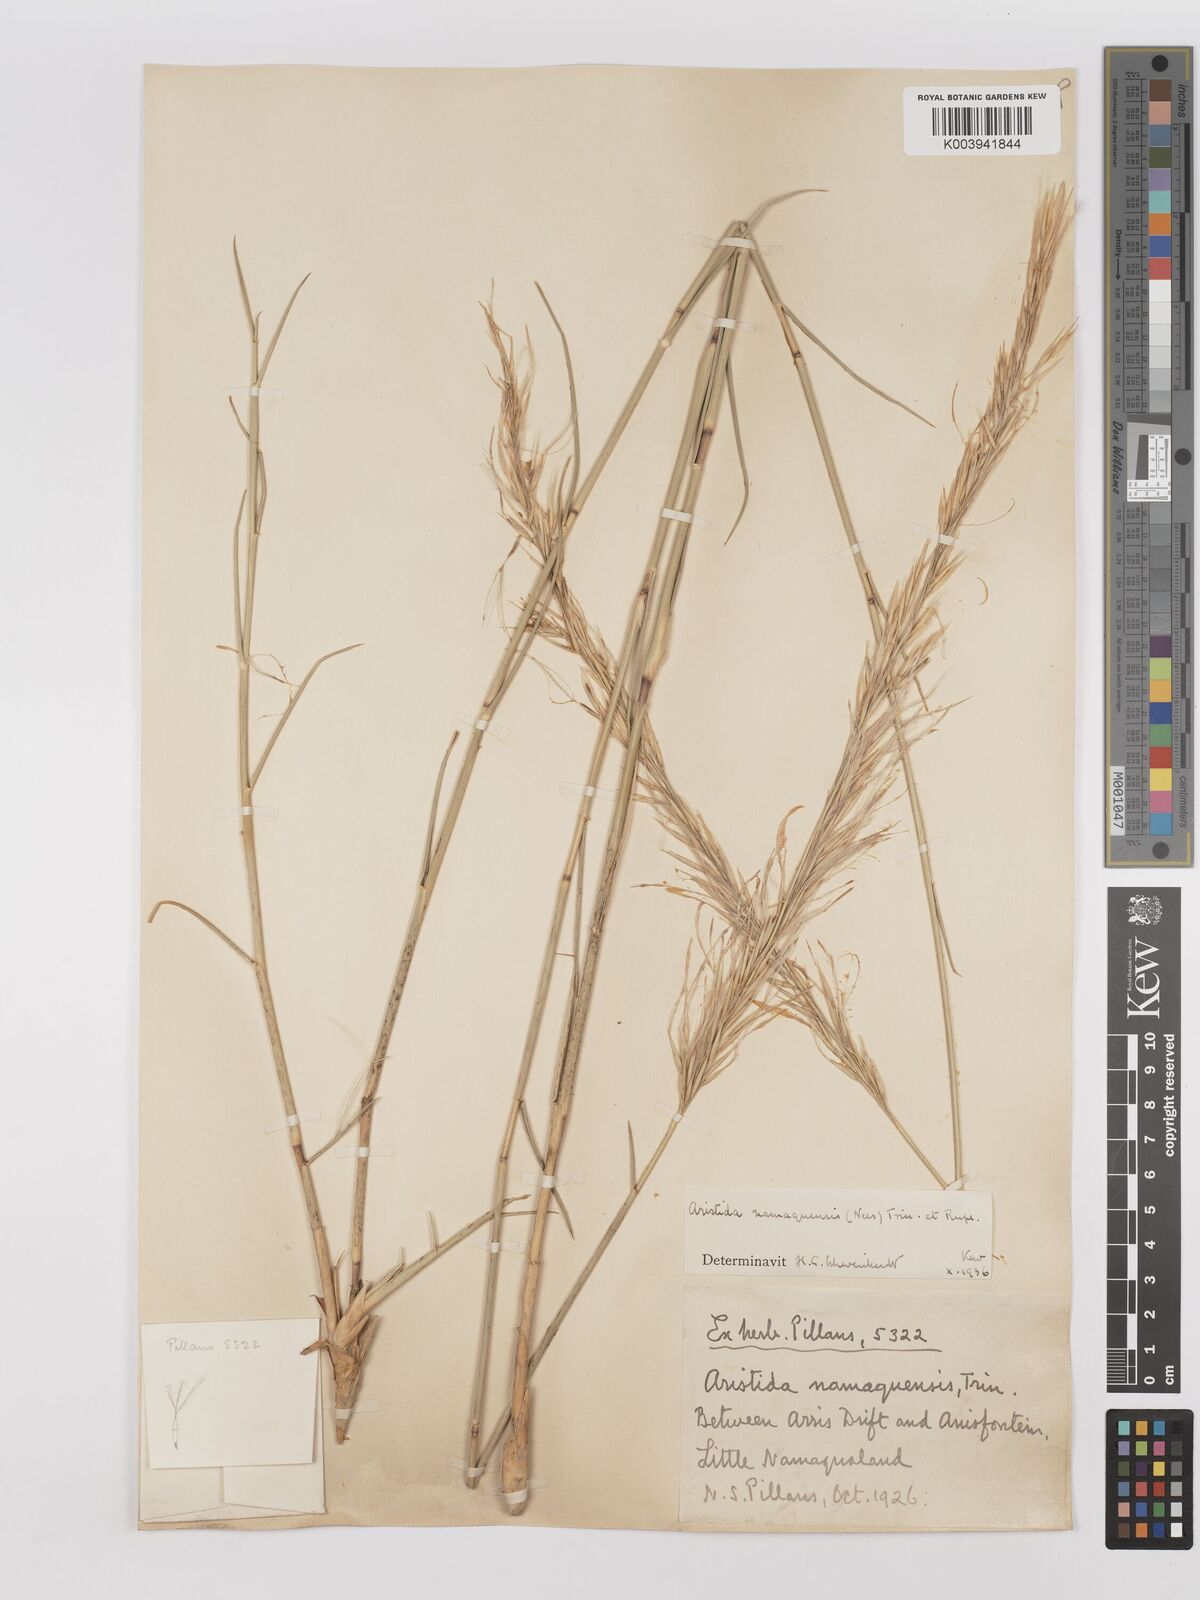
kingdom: Plantae
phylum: Tracheophyta
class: Liliopsida
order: Poales
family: Poaceae
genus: Stipagrostis
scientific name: Stipagrostis namaquensis
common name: River bushman grass
